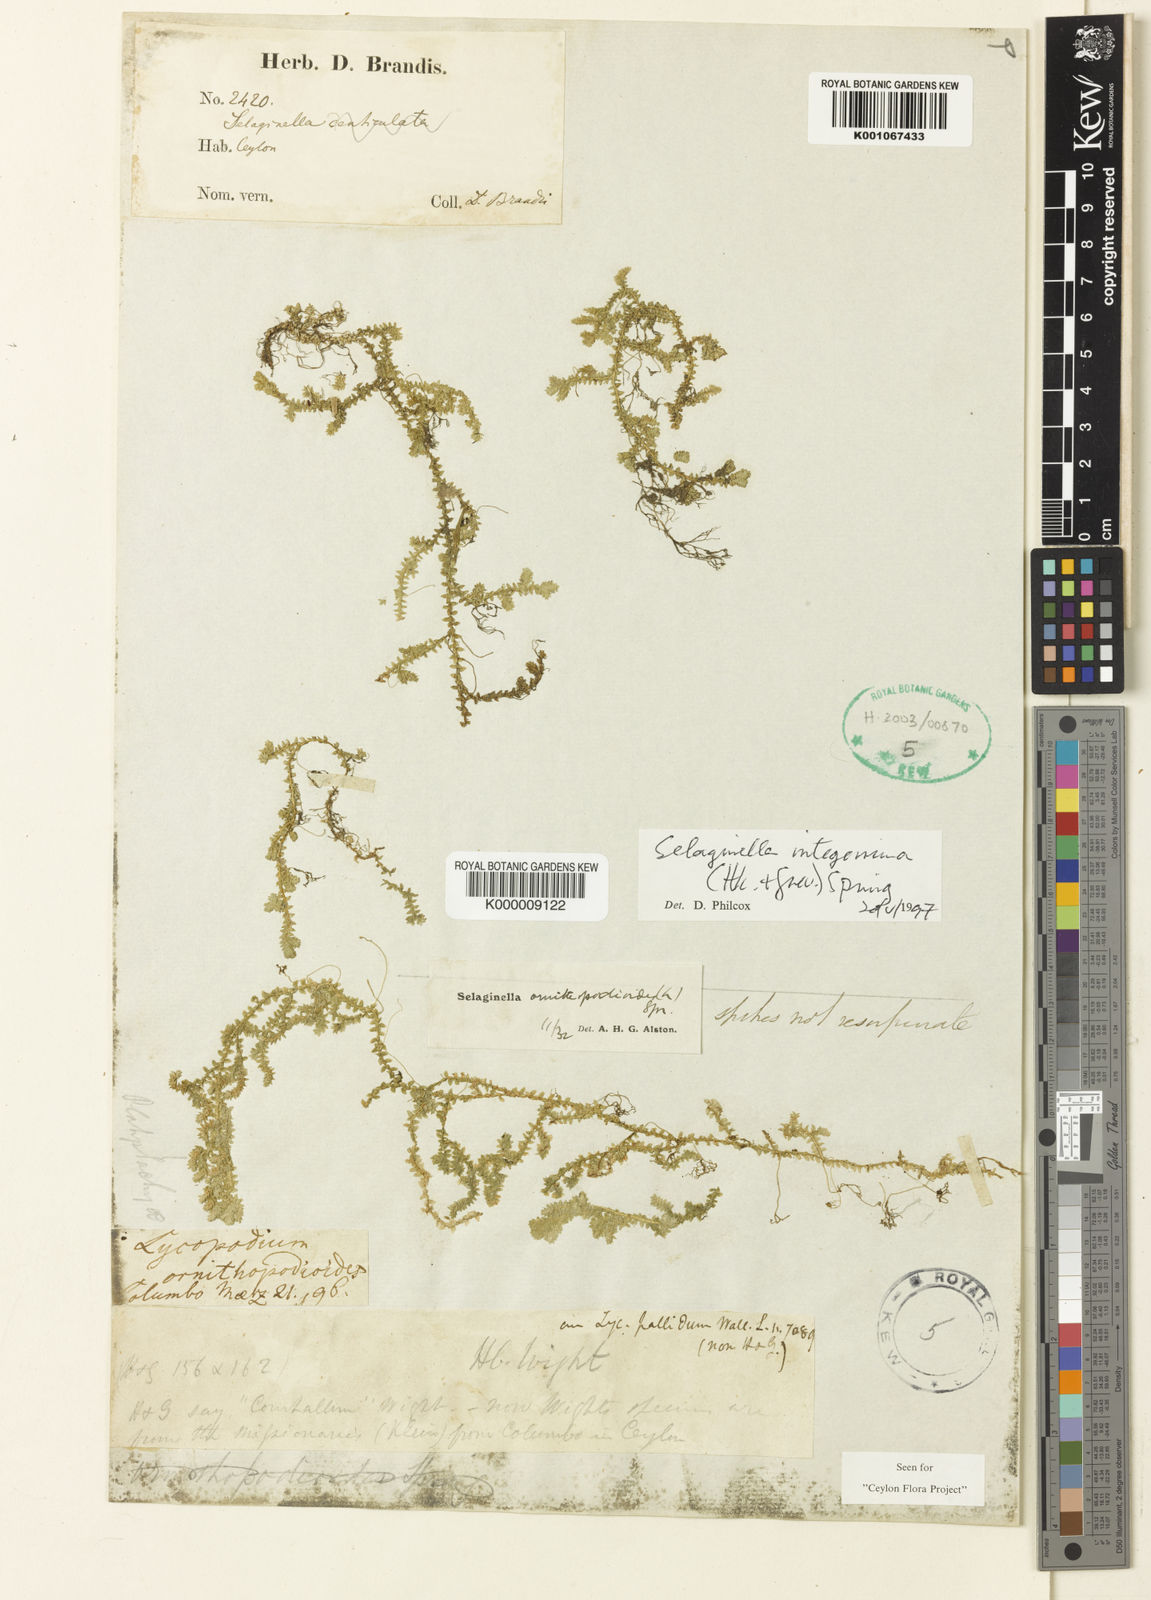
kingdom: Plantae
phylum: Tracheophyta
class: Lycopodiopsida
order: Selaginellales
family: Selaginellaceae
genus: Selaginella
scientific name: Selaginella ornithopodioides
